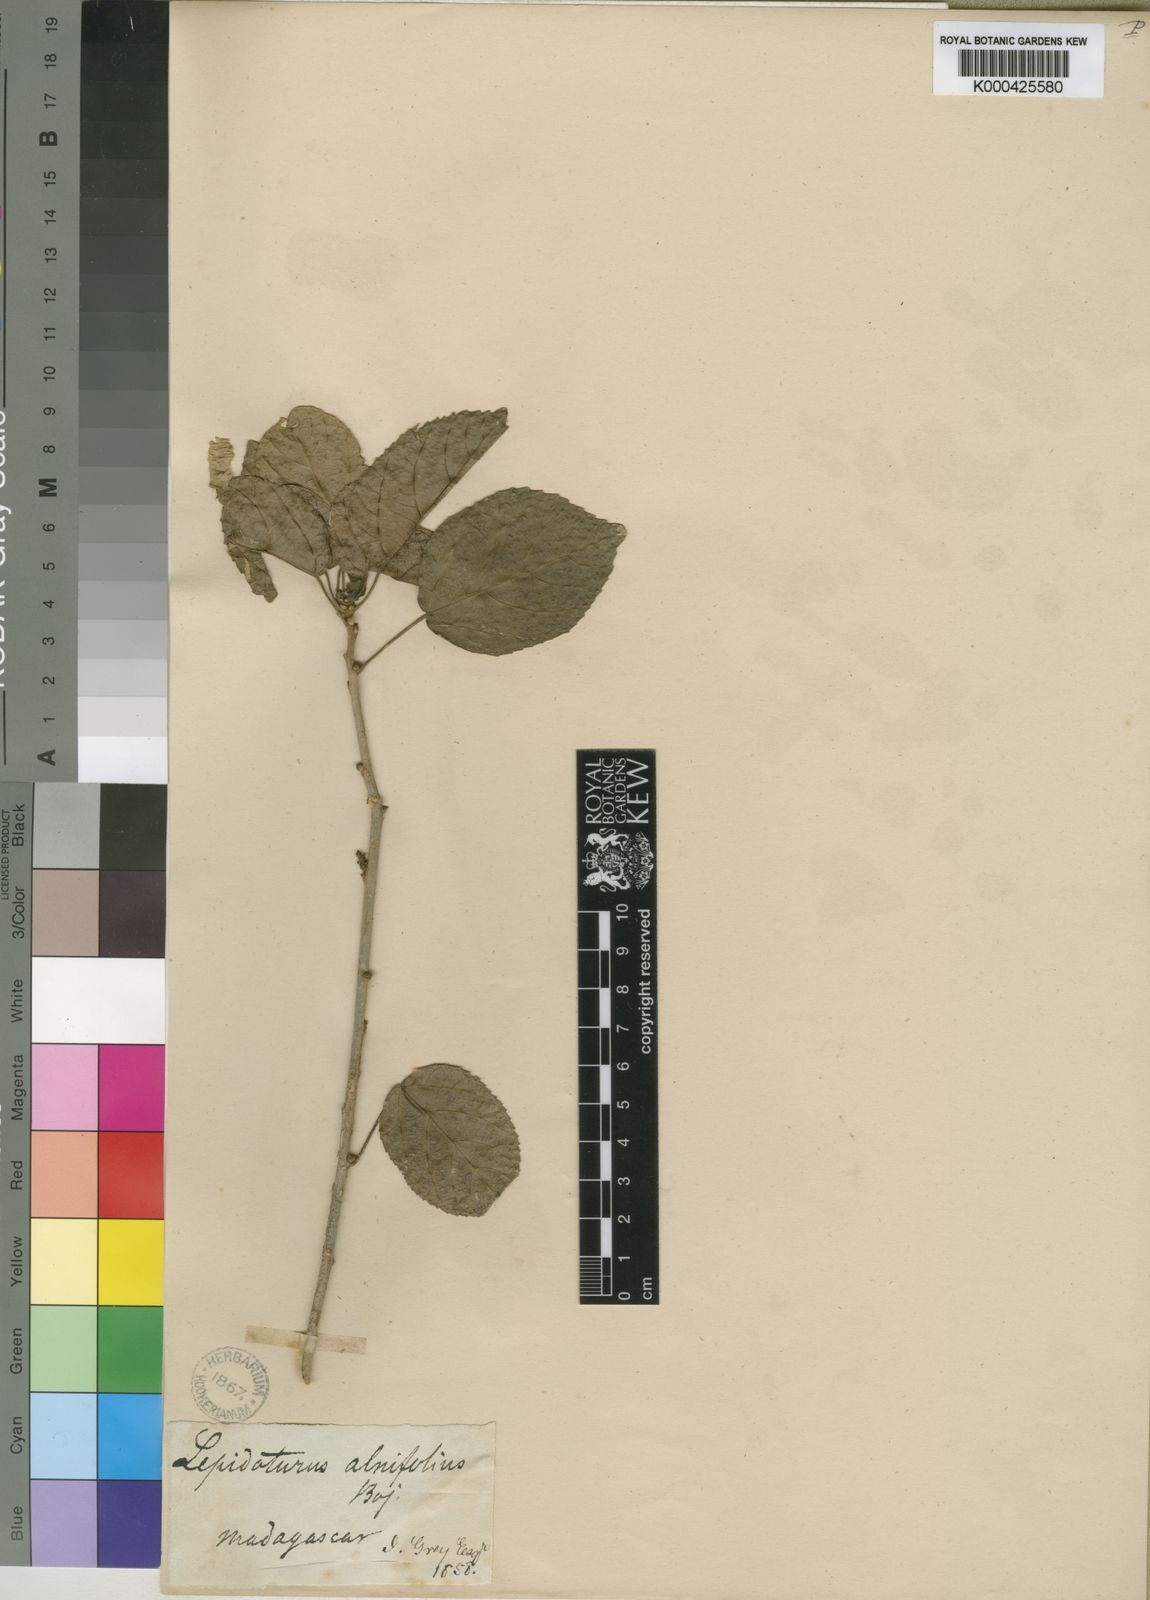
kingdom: Plantae
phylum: Tracheophyta
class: Magnoliopsida
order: Malpighiales
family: Euphorbiaceae
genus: Alchornea
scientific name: Alchornea alnifolia
